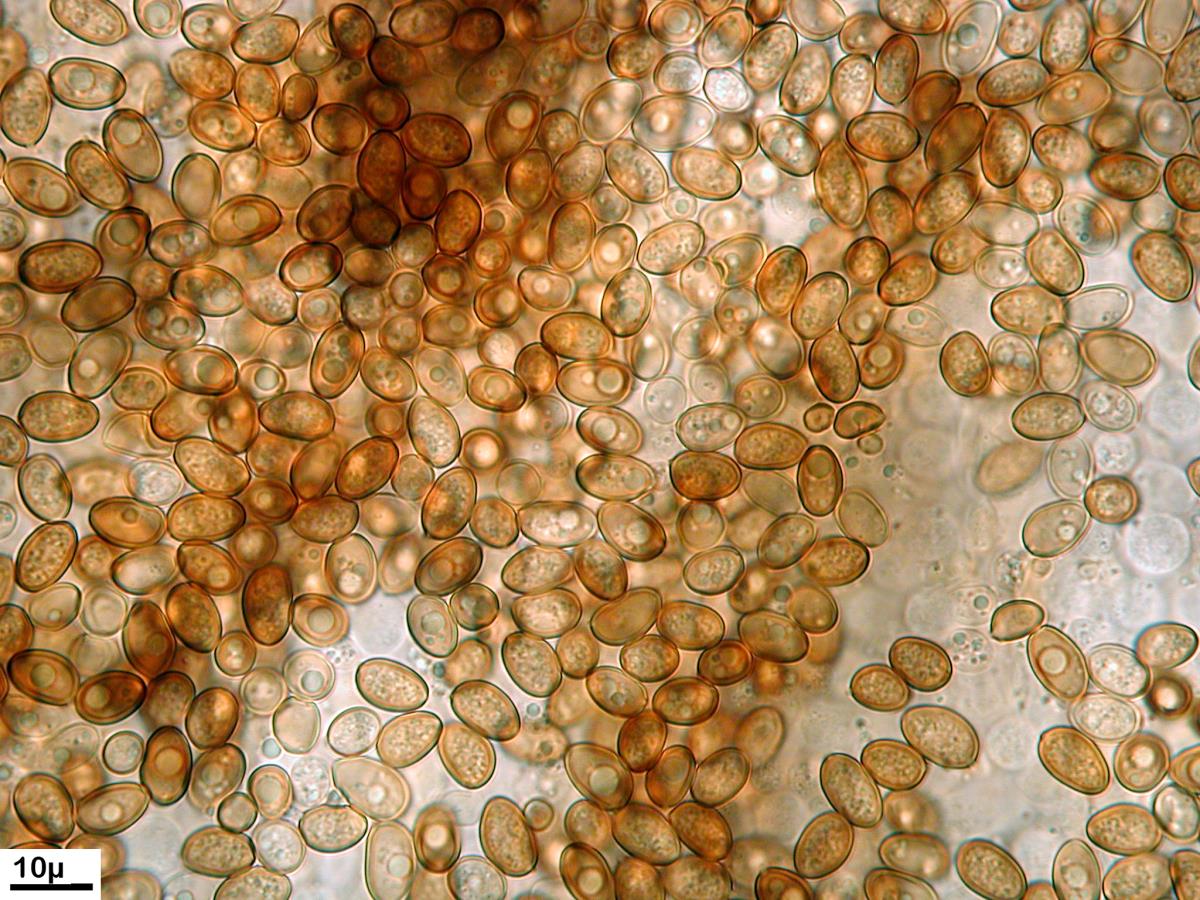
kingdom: Fungi
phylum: Basidiomycota
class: Agaricomycetes
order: Agaricales
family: Strophariaceae
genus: Pholiota
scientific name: Pholiota
